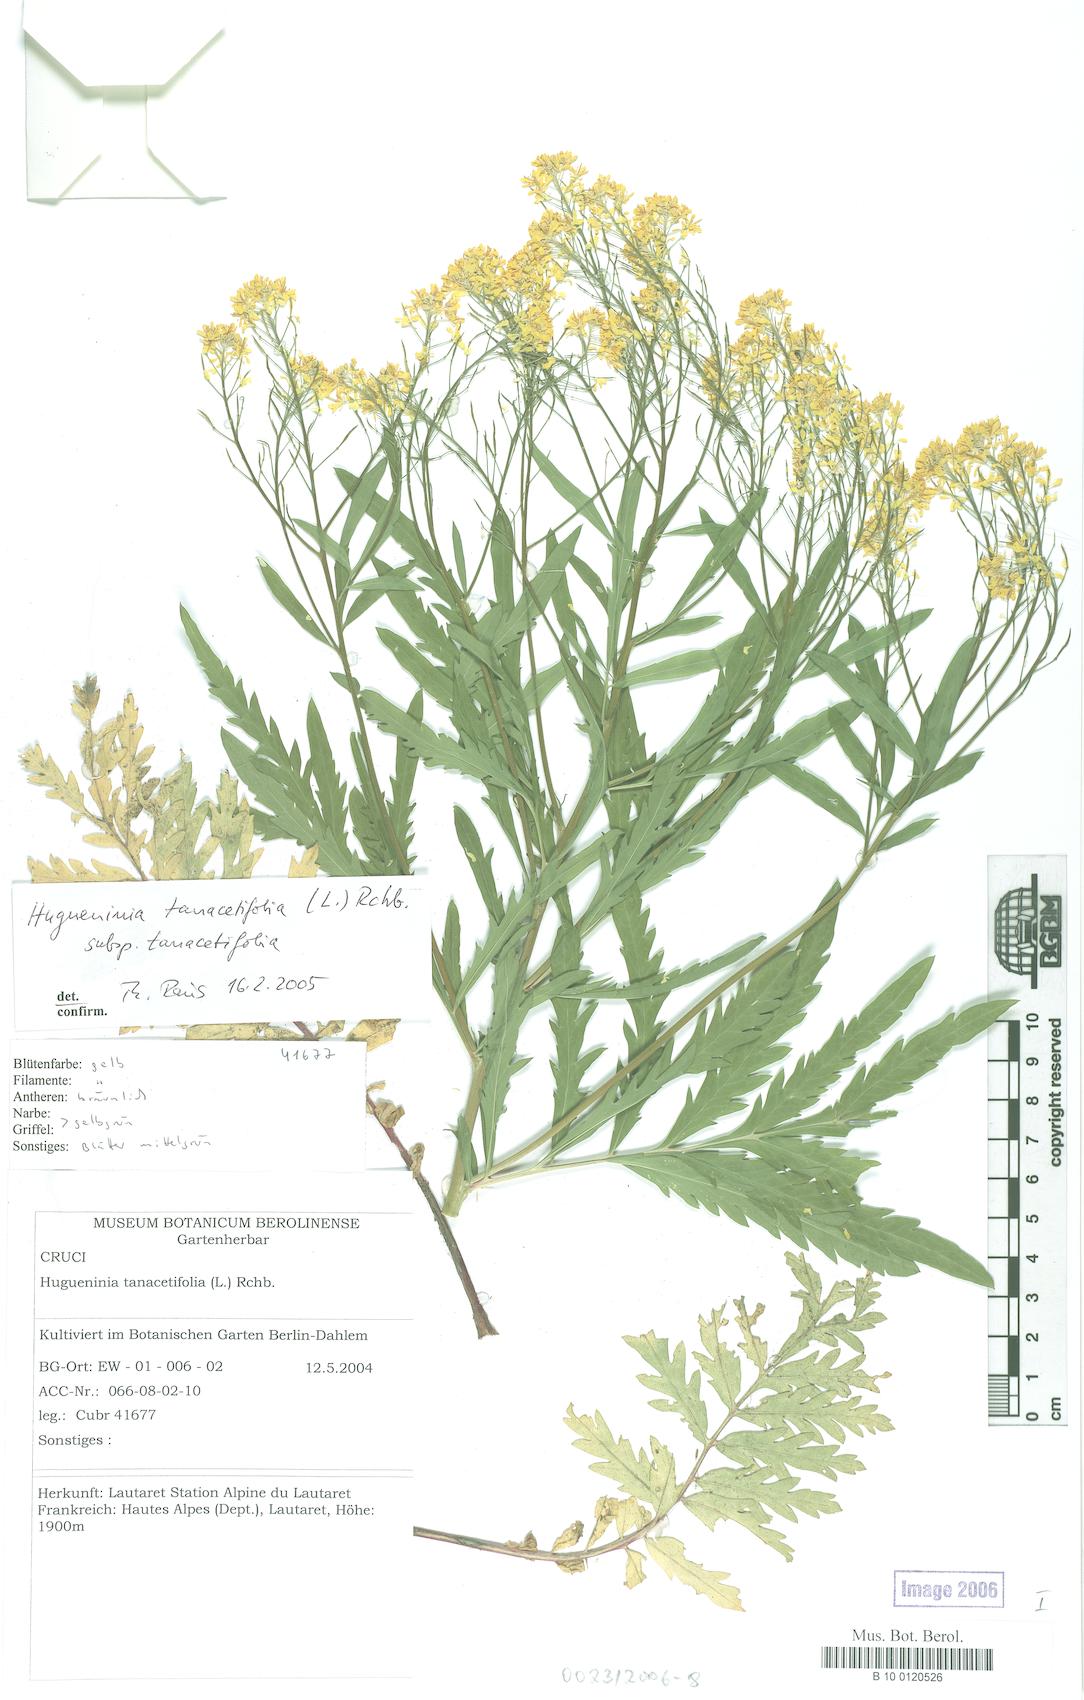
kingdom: Plantae
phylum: Tracheophyta
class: Magnoliopsida
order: Brassicales
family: Brassicaceae
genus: Descurainia
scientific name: Descurainia tanacetifolia
